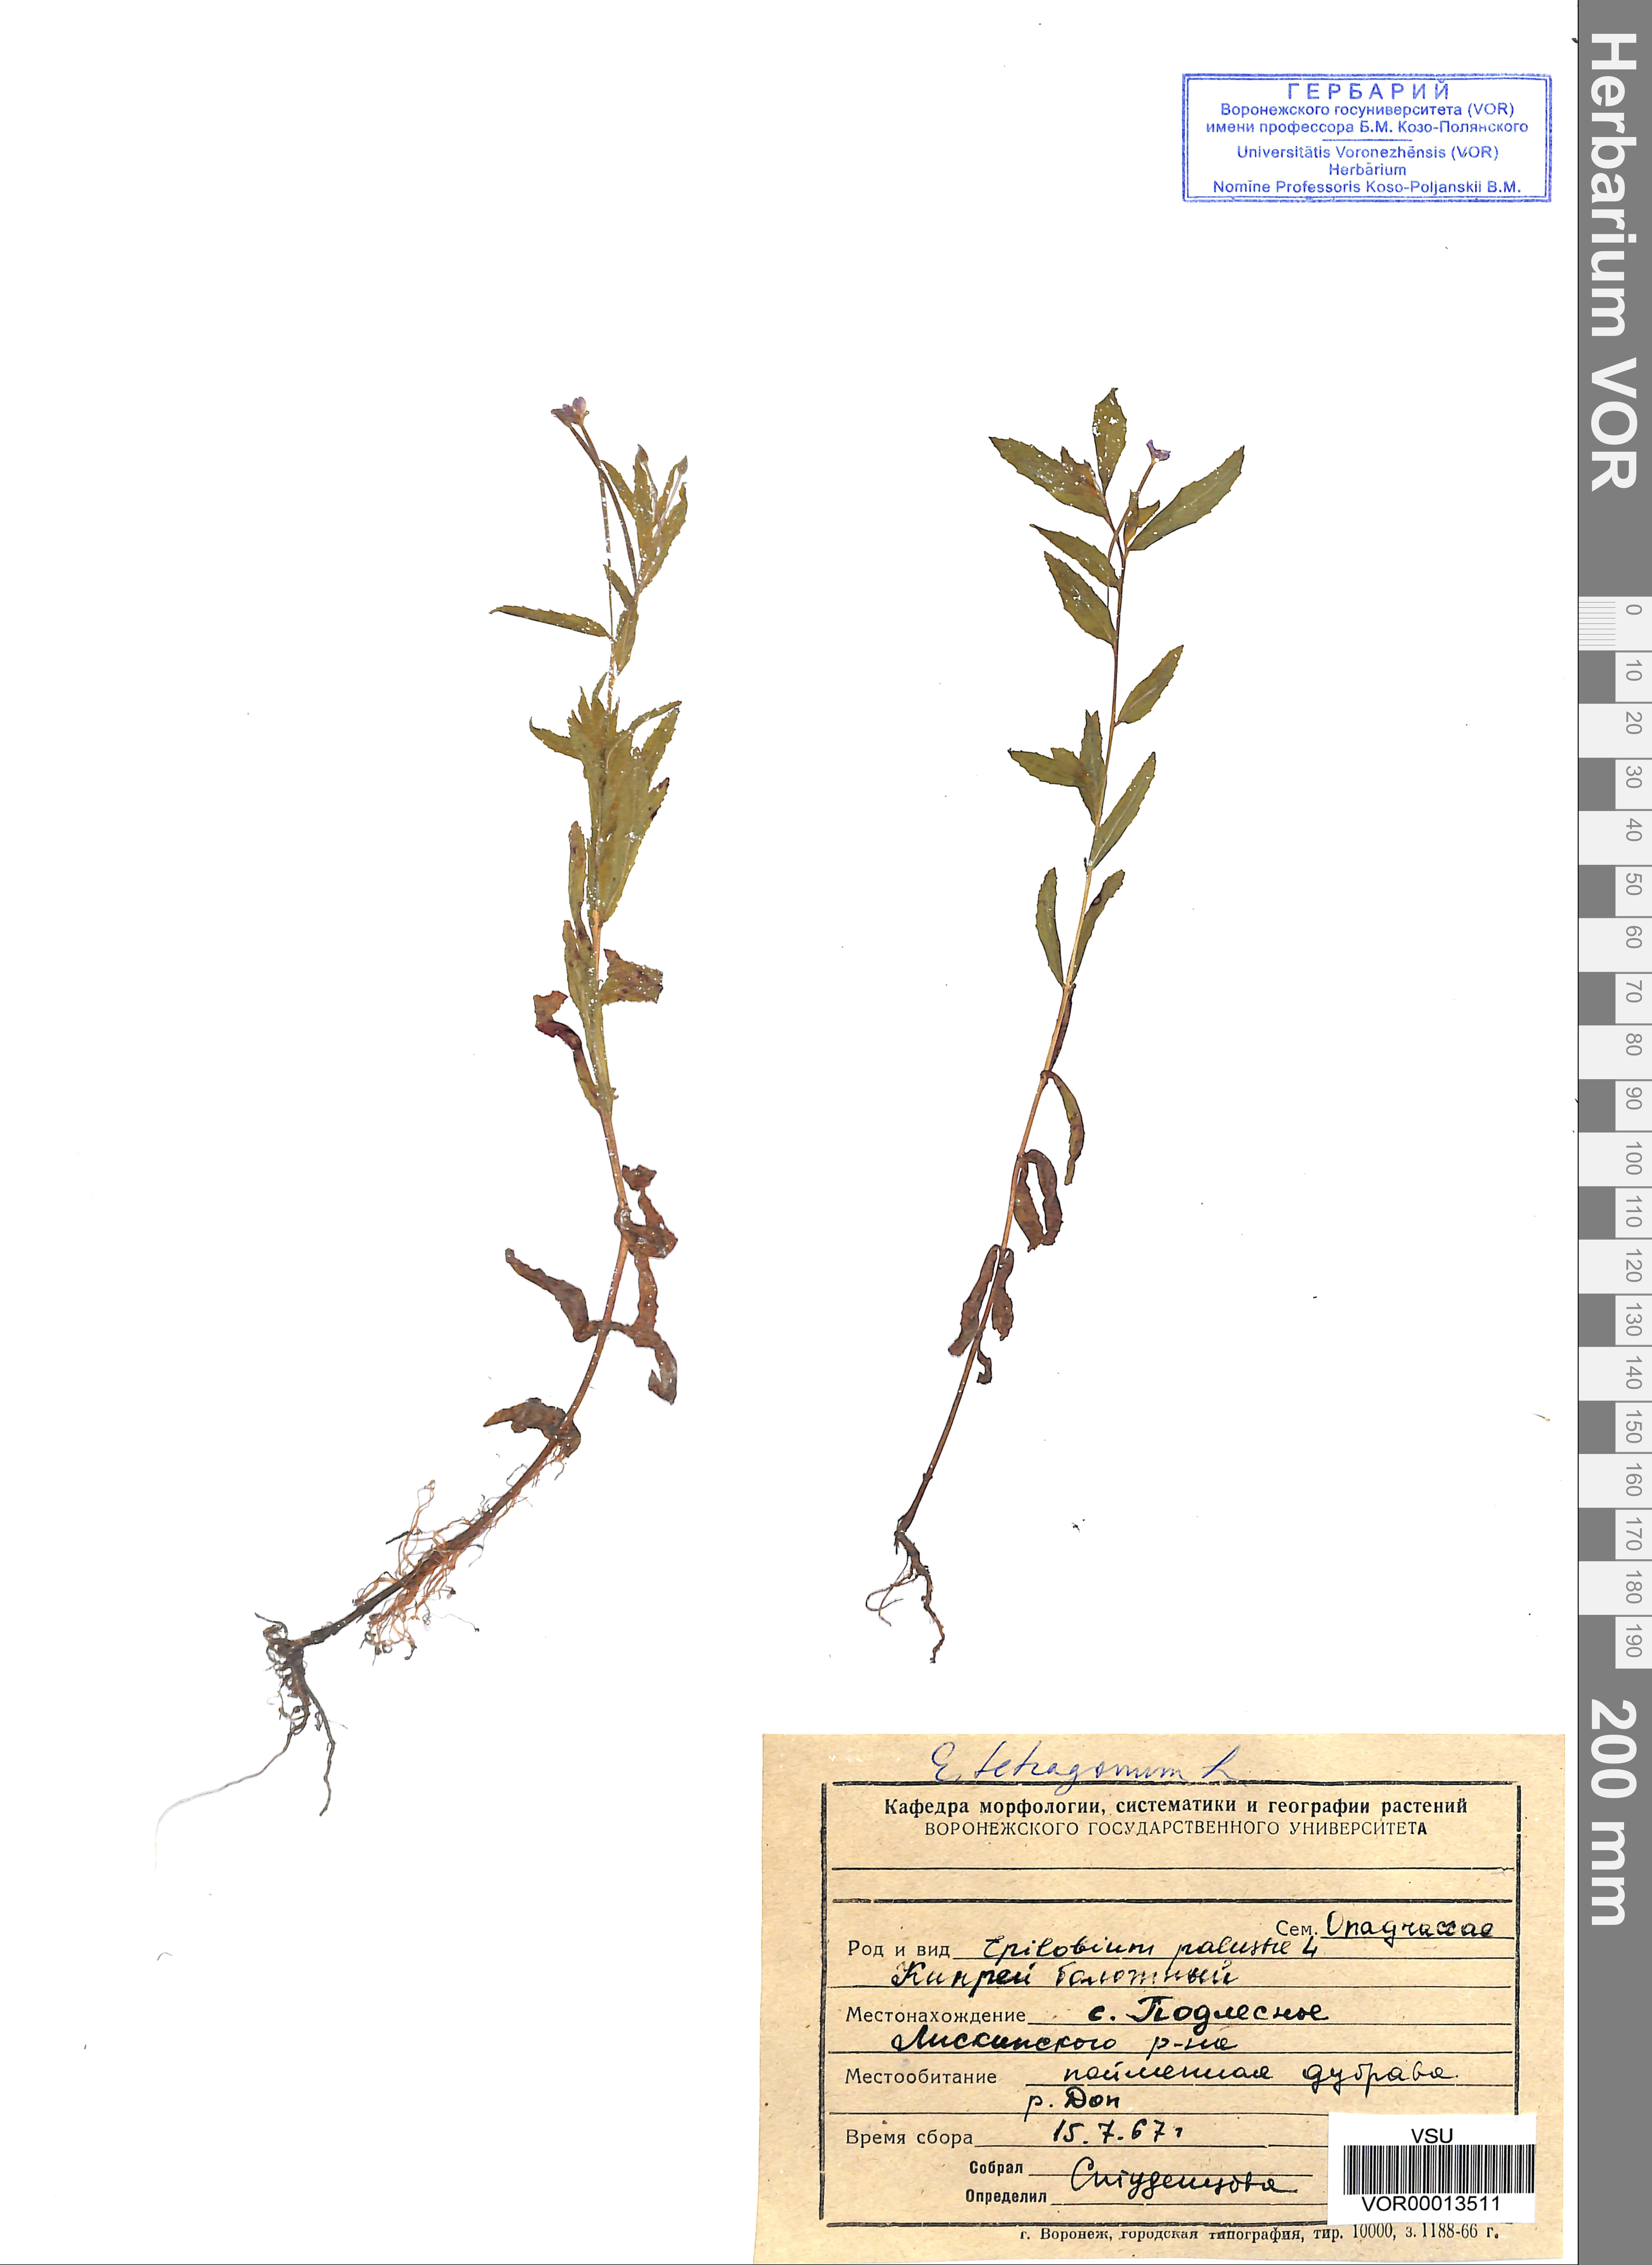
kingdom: Plantae
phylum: Tracheophyta
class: Magnoliopsida
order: Myrtales
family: Onagraceae
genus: Epilobium
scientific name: Epilobium tetragonum
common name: Square-stemmed willowherb
